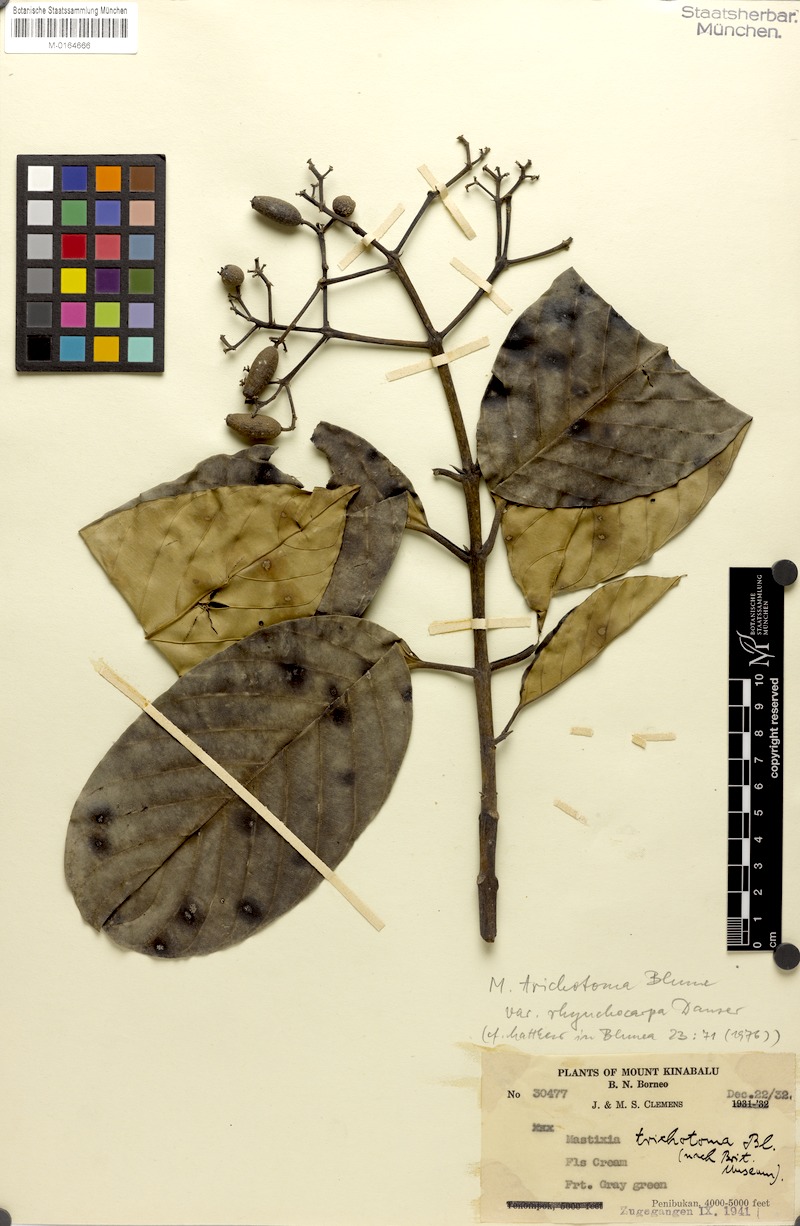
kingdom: Plantae
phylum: Tracheophyta
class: Magnoliopsida
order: Cornales
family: Nyssaceae
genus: Mastixia
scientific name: Mastixia trichotoma
